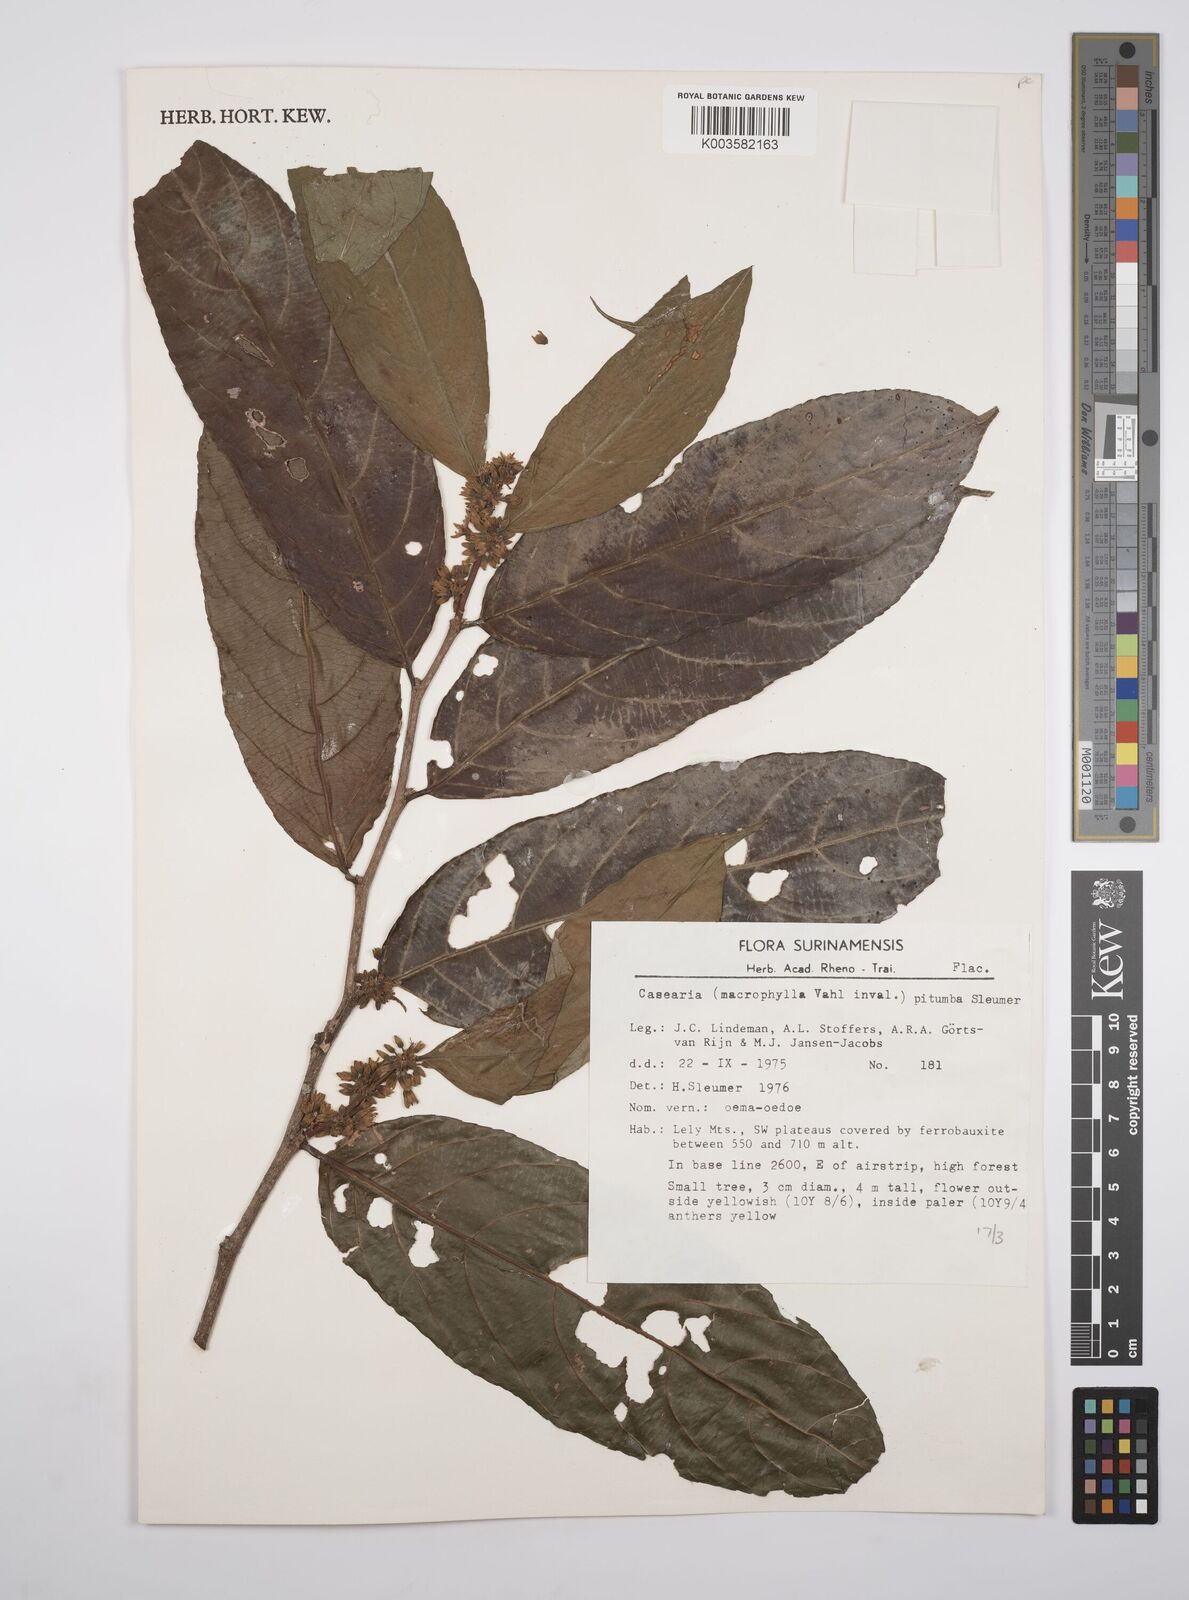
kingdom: Plantae
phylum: Tracheophyta
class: Magnoliopsida
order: Malpighiales
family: Salicaceae
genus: Casearia
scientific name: Casearia pitumba
